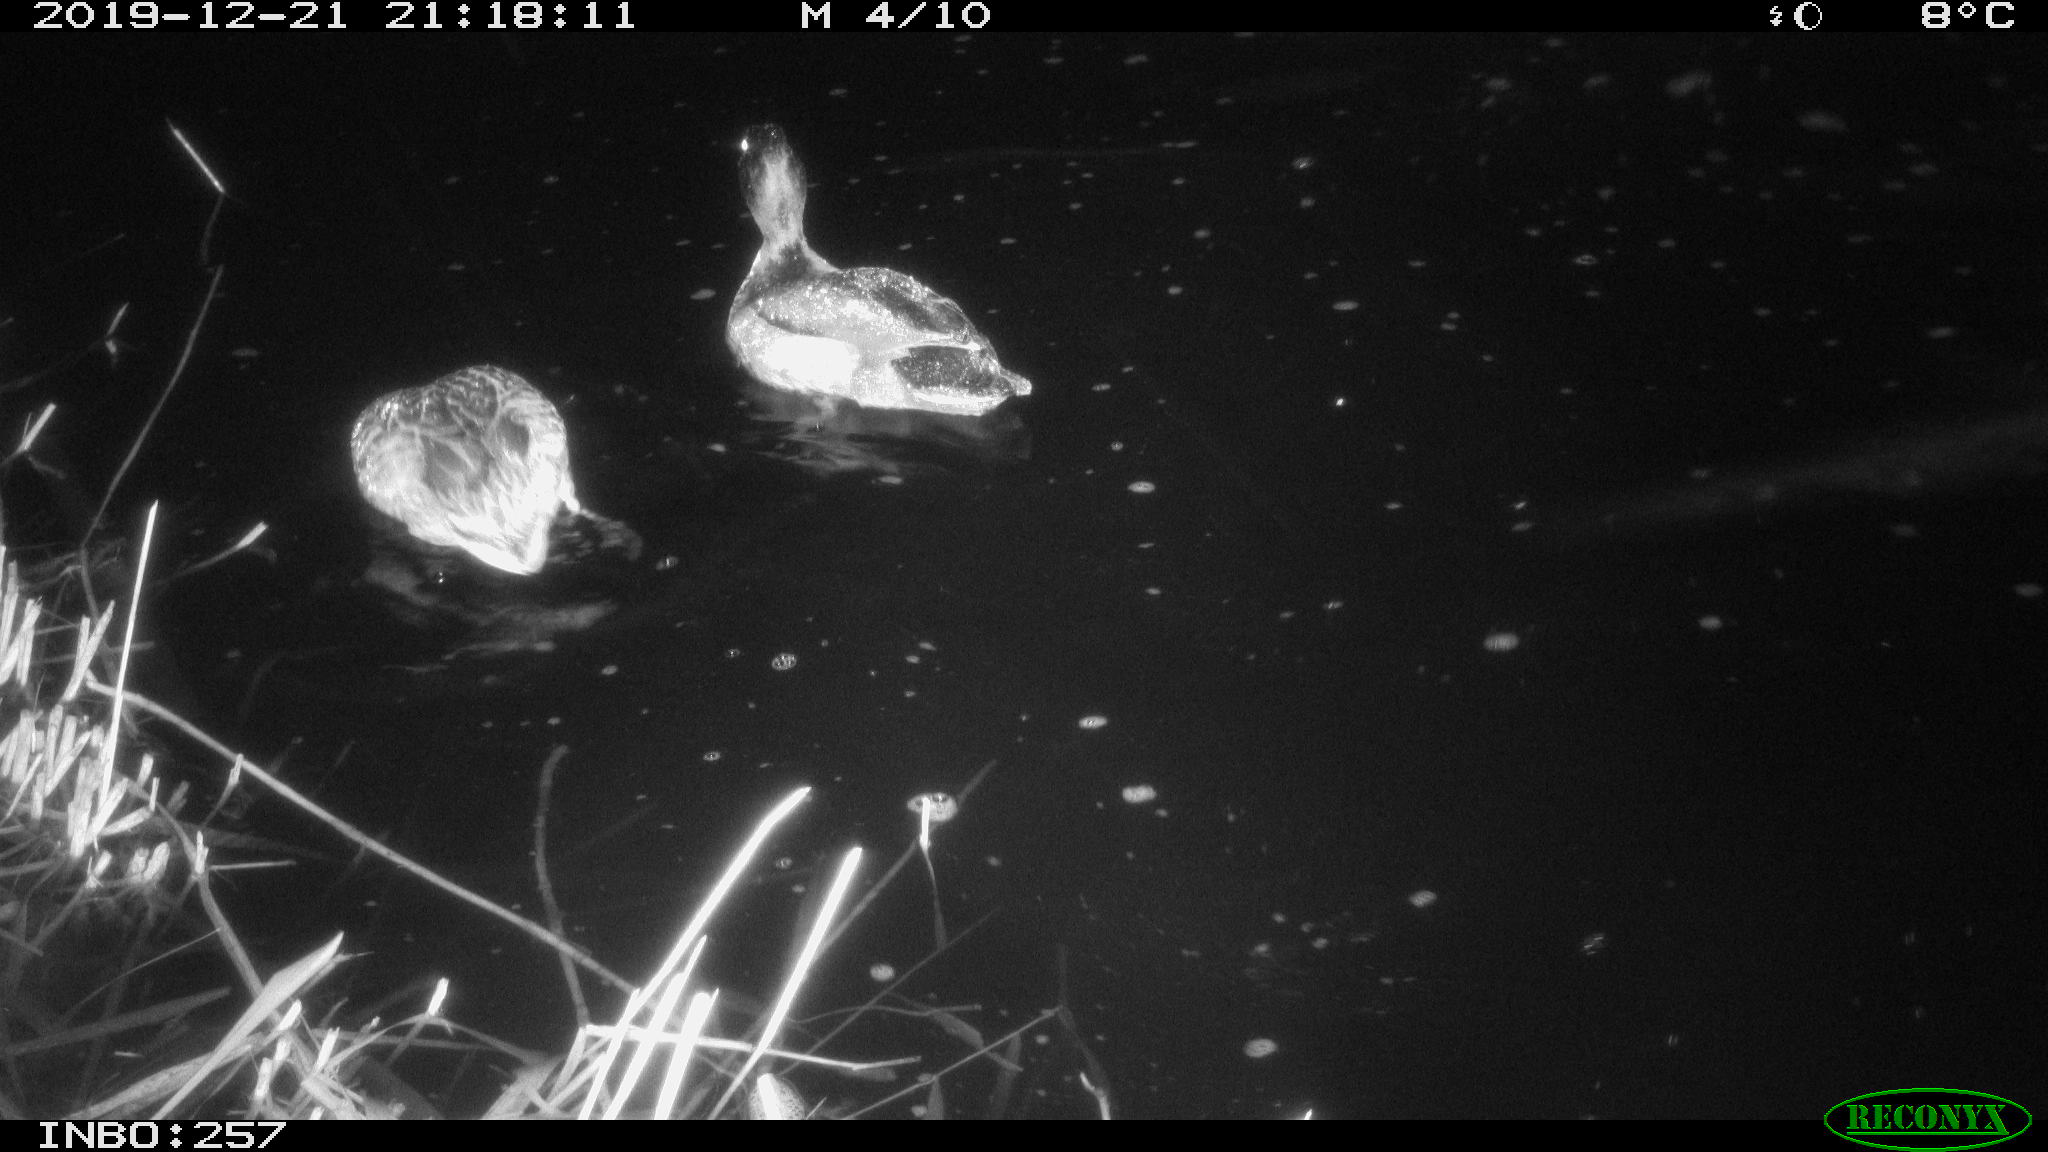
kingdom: Animalia
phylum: Chordata
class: Aves
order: Anseriformes
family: Anatidae
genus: Anas
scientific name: Anas platyrhynchos
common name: Mallard
